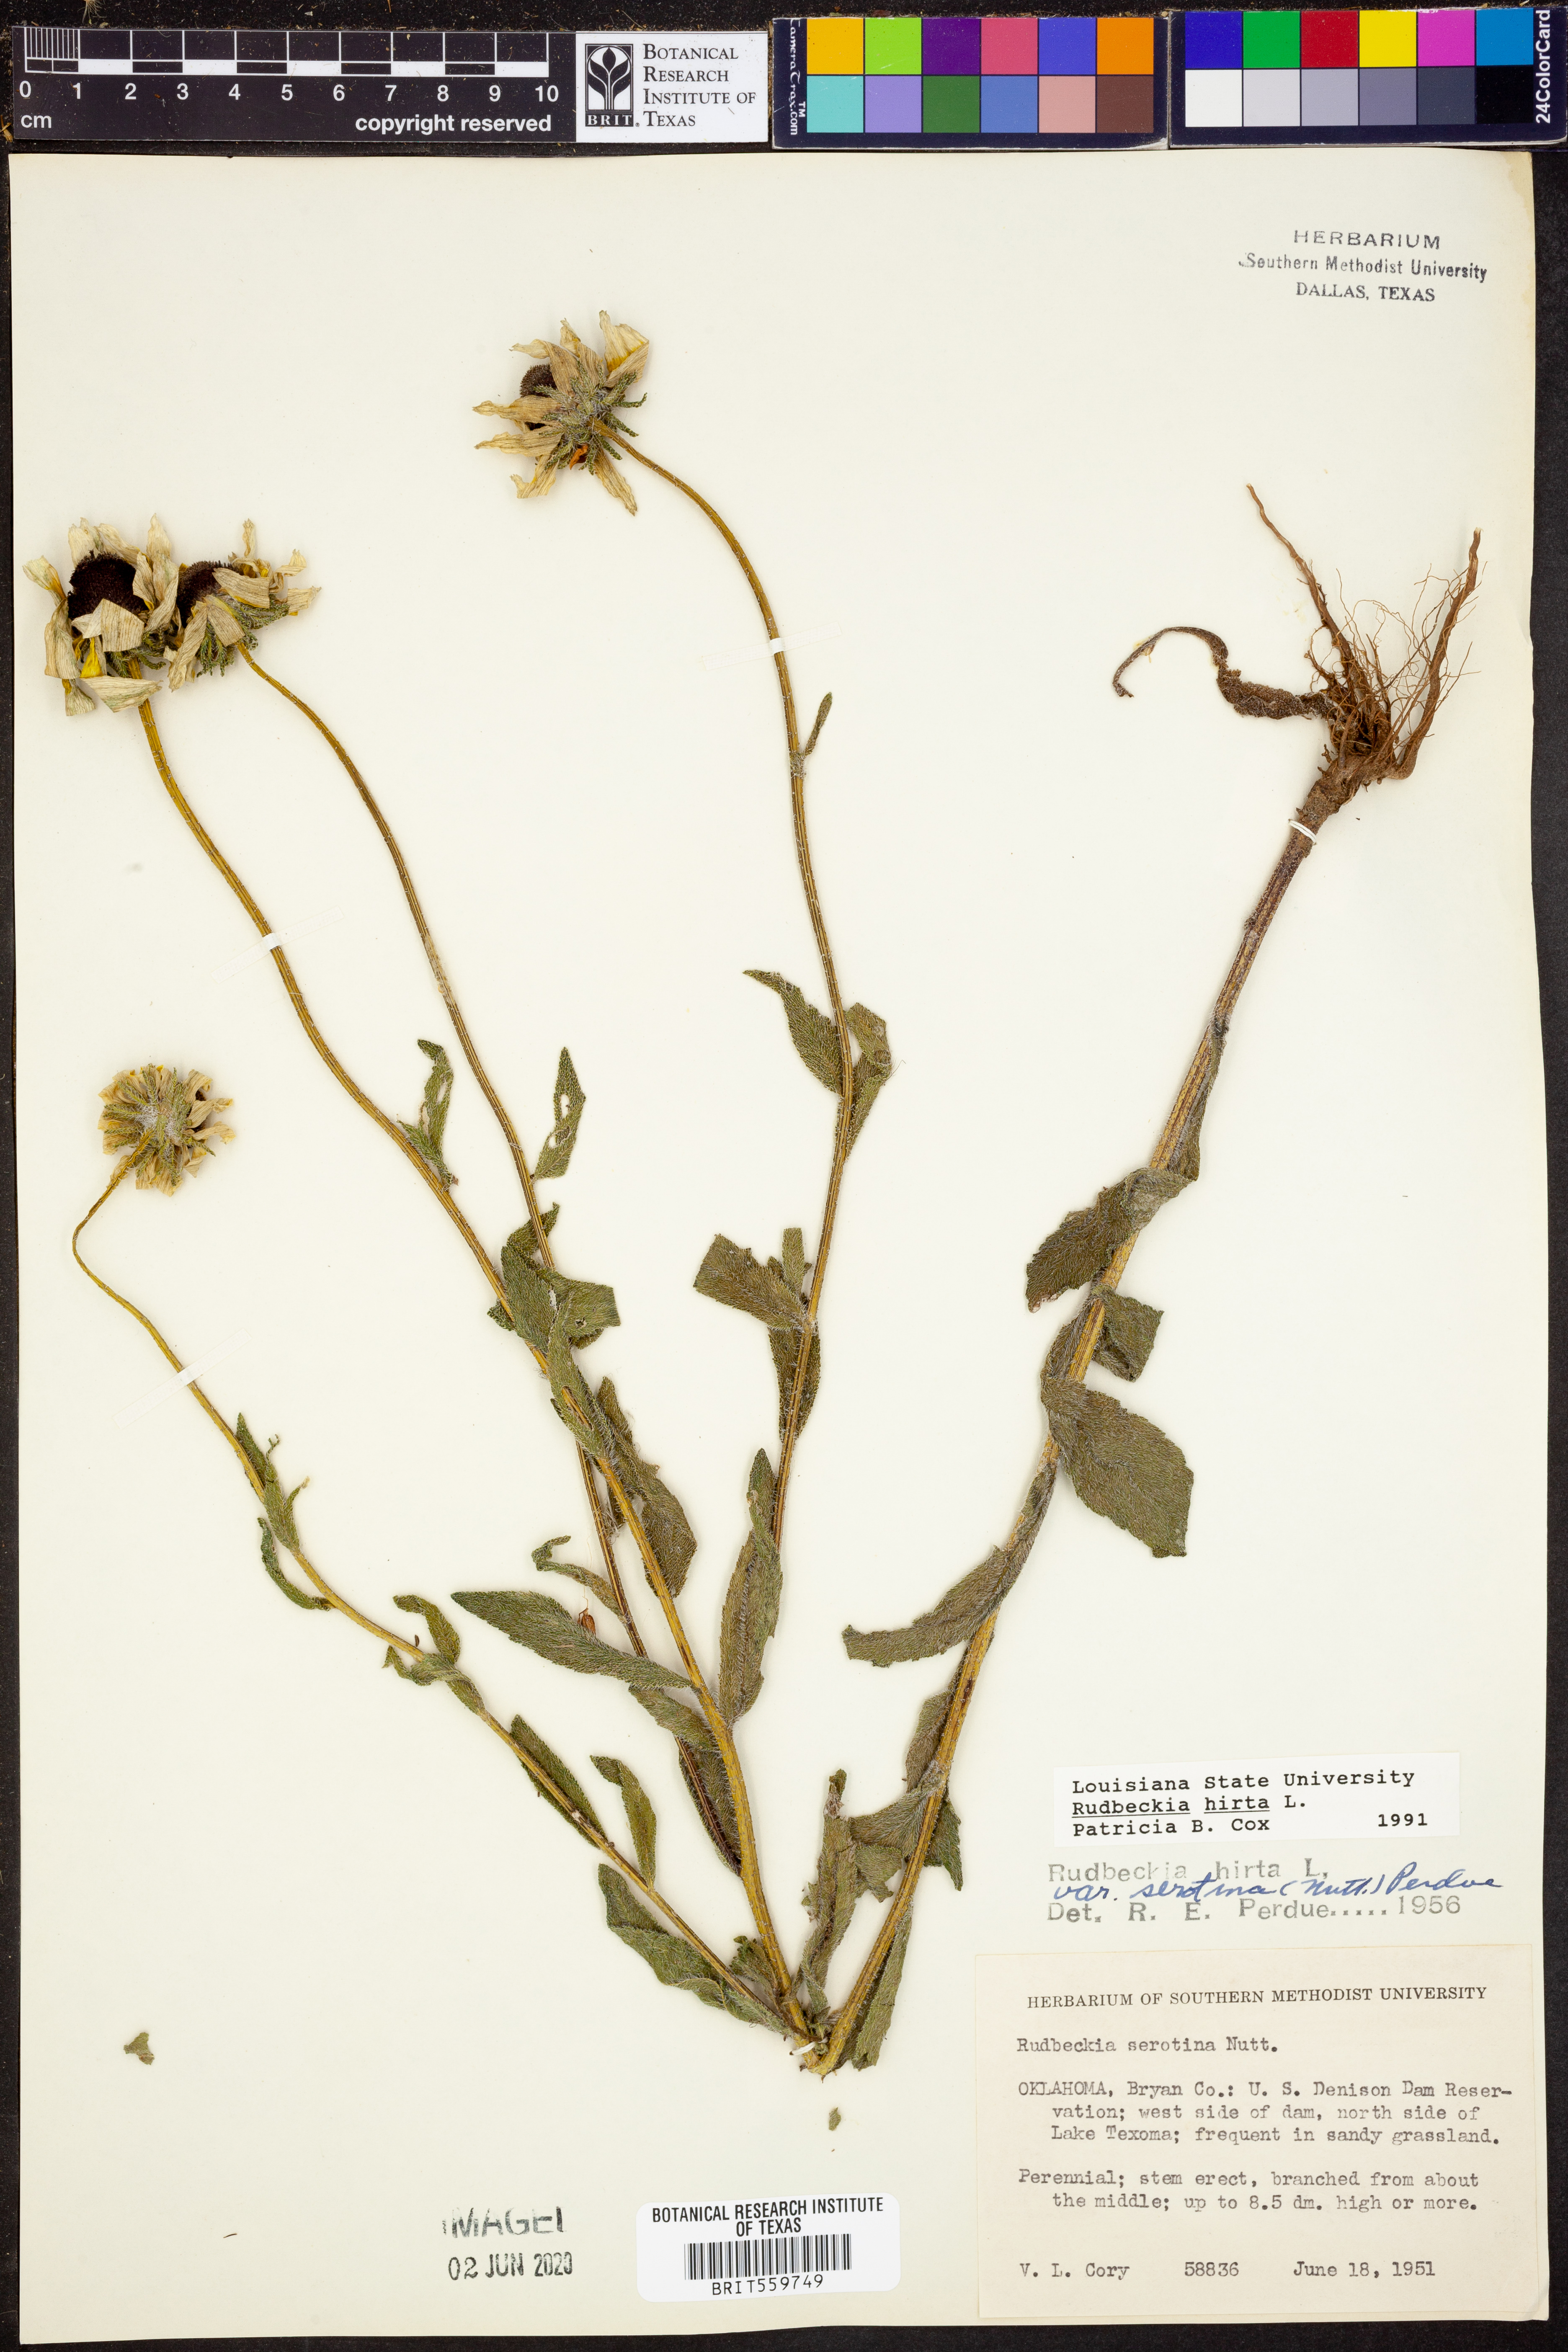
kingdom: Plantae
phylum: Tracheophyta
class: Magnoliopsida
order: Asterales
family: Asteraceae
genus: Rudbeckia
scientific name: Rudbeckia hirta
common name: Black-eyed-susan
